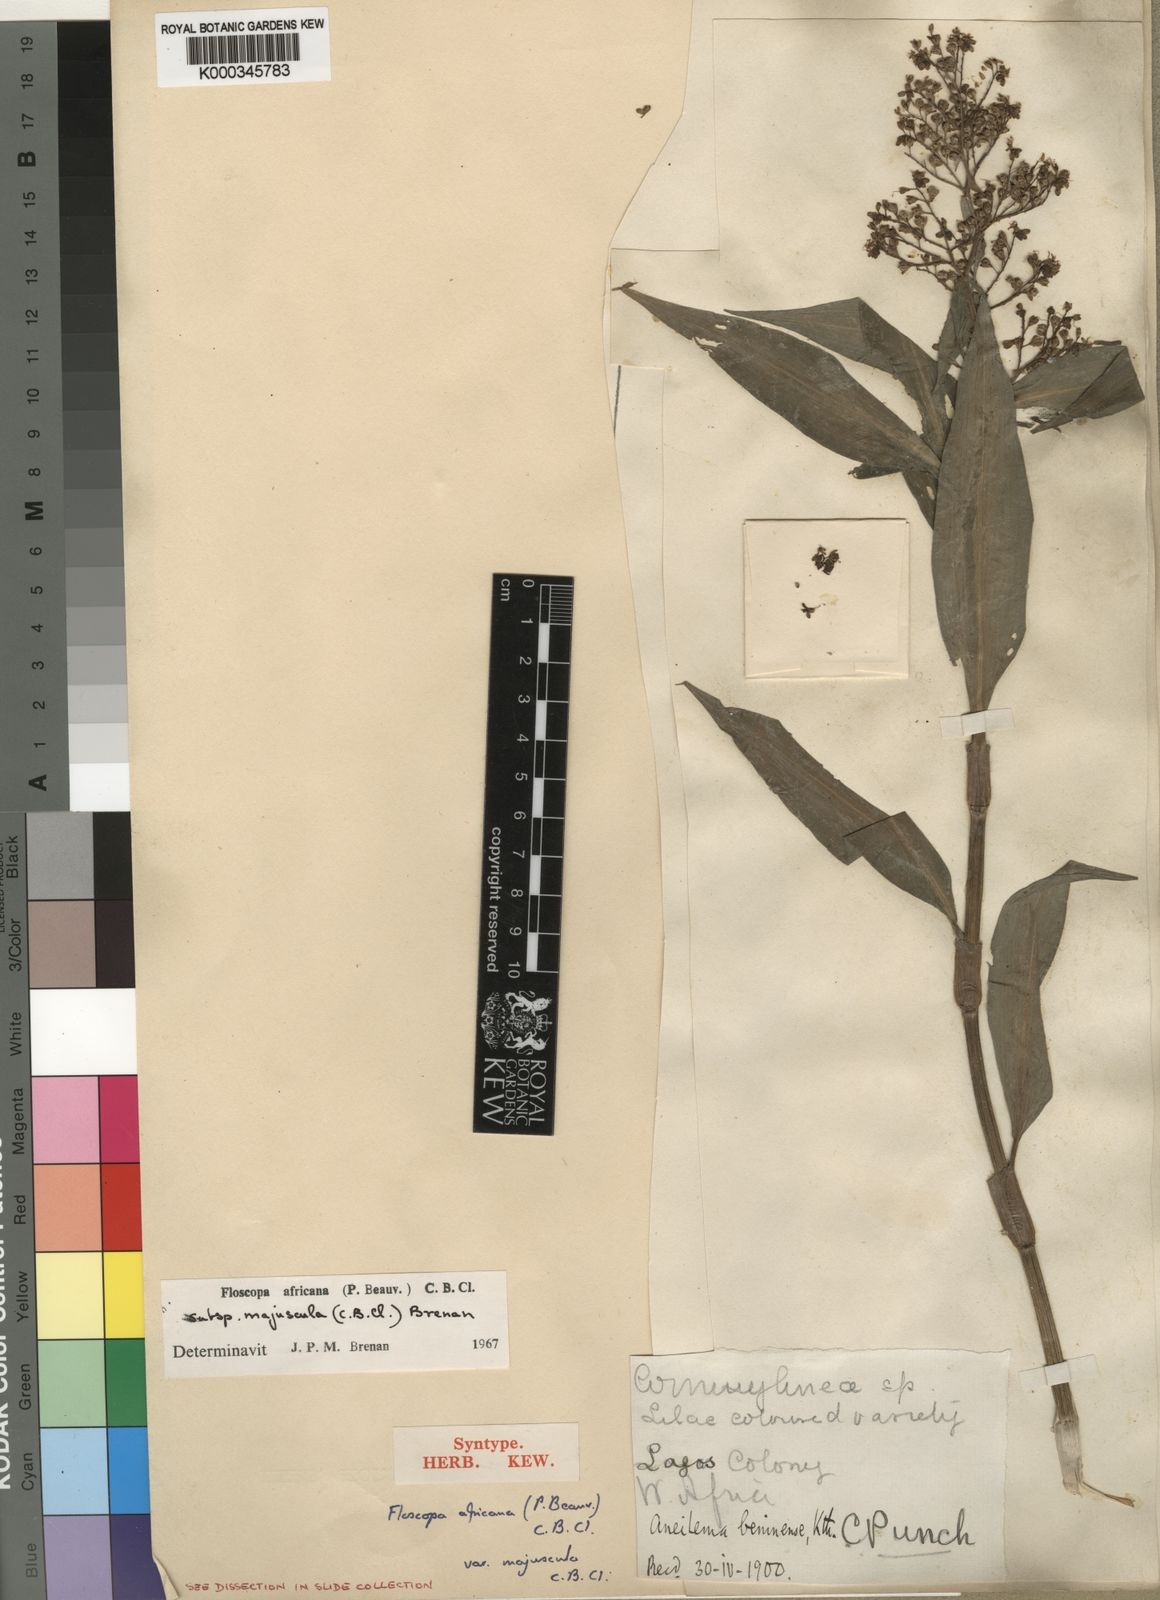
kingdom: Plantae
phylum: Tracheophyta
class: Liliopsida
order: Commelinales
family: Commelinaceae
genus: Floscopa
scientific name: Floscopa africana
